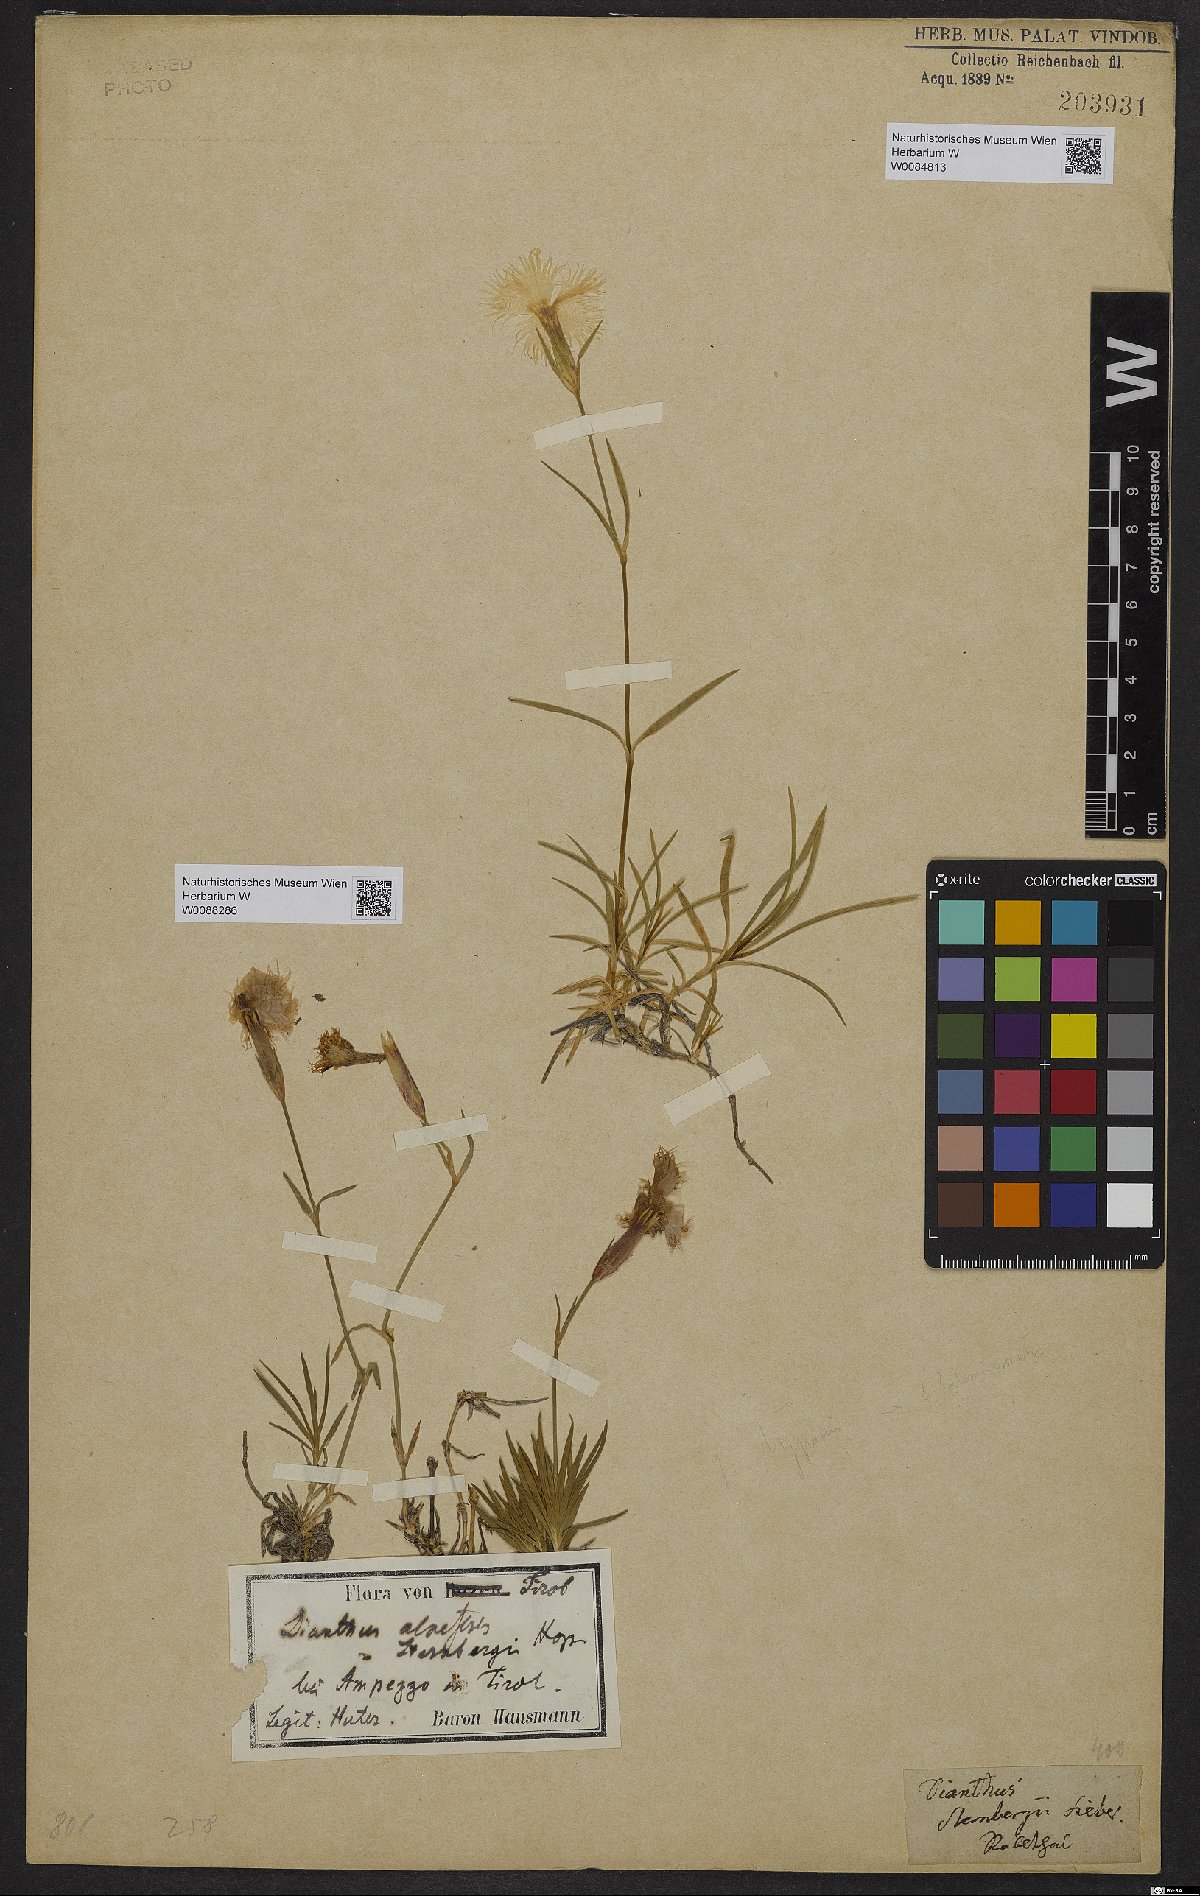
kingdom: Plantae
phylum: Tracheophyta
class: Magnoliopsida
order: Caryophyllales
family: Caryophyllaceae
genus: Dianthus
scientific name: Dianthus monspessulanus
